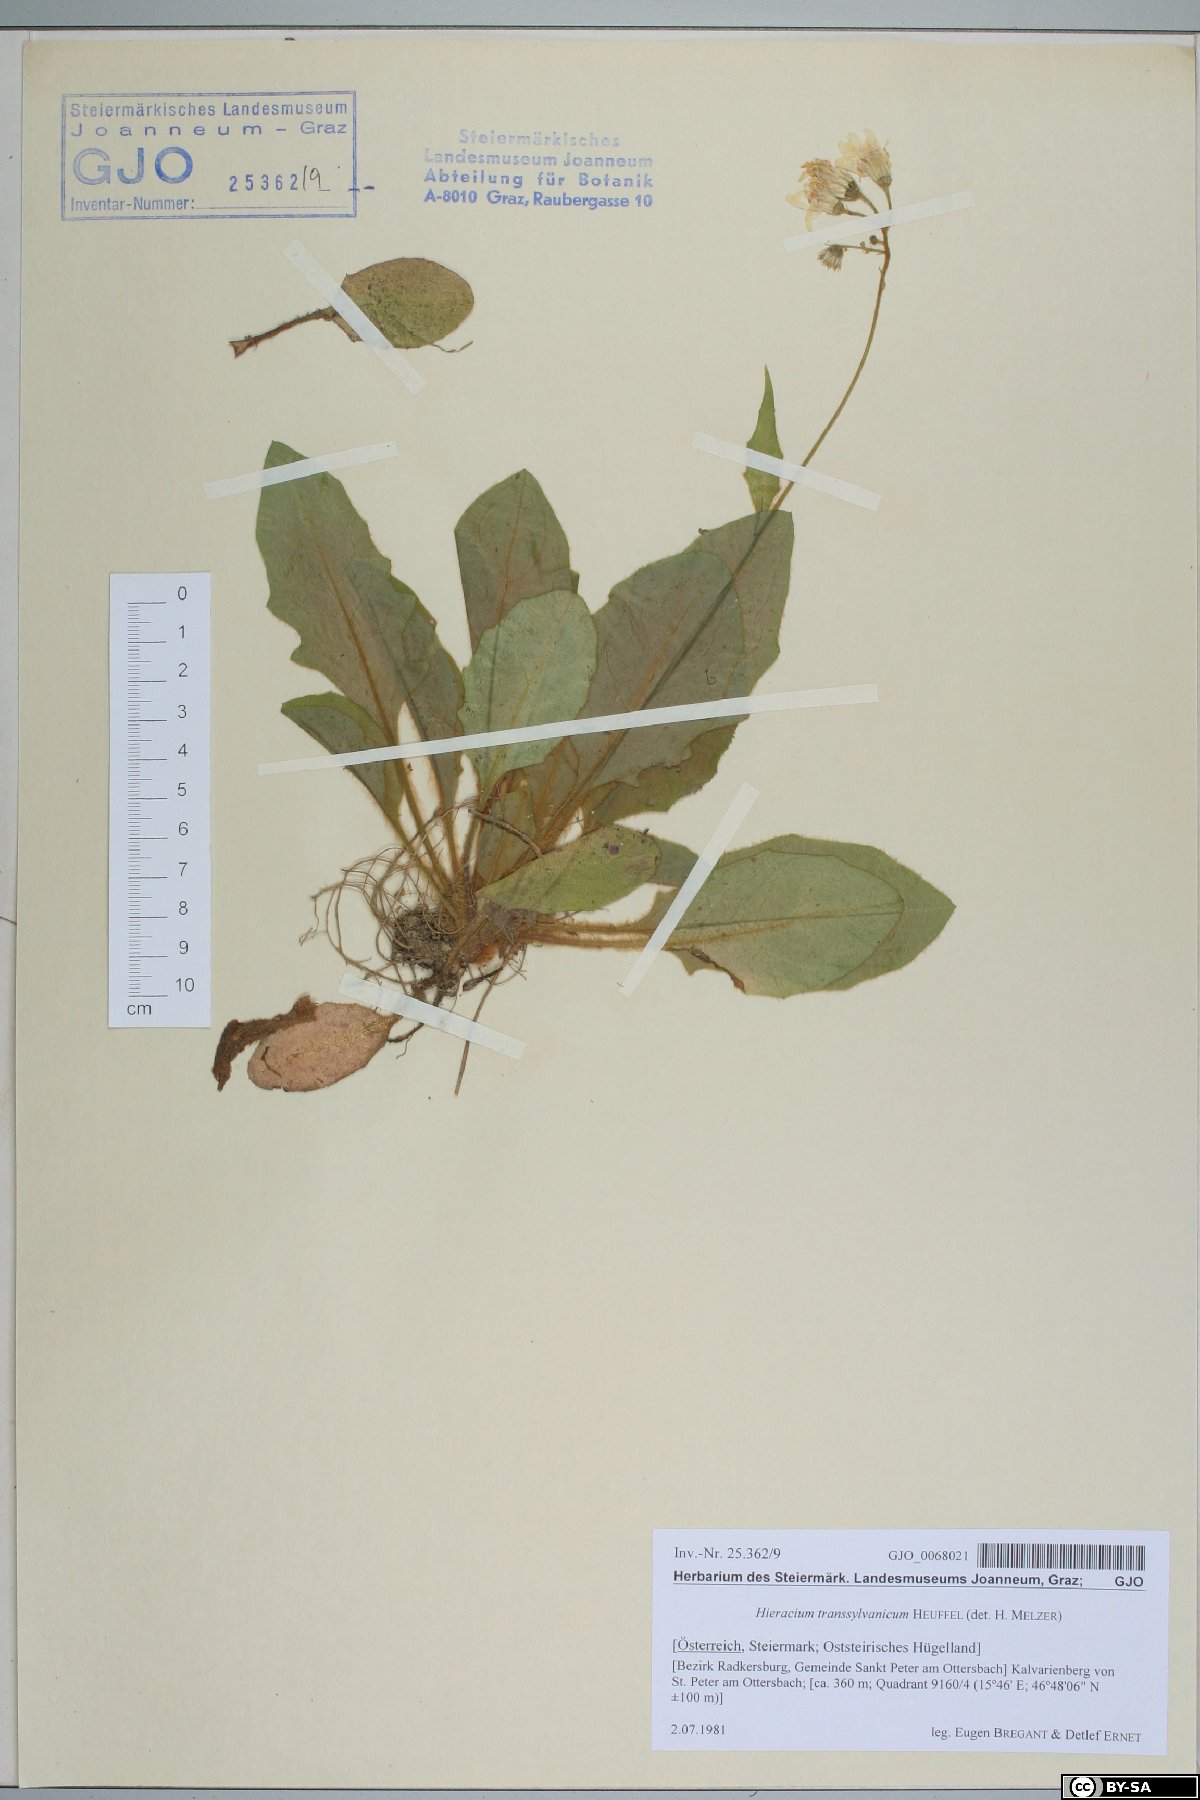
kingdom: Plantae
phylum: Tracheophyta
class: Magnoliopsida
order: Asterales
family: Asteraceae
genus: Hieracium
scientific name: Hieracium transylvanicum
